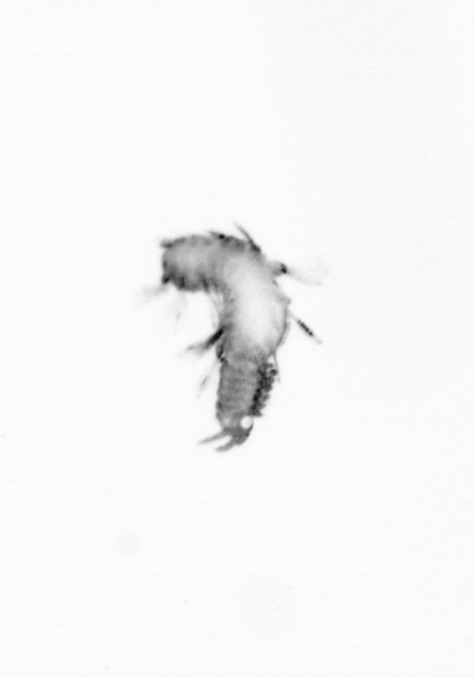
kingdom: Animalia
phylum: Annelida
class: Polychaeta
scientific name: Polychaeta
